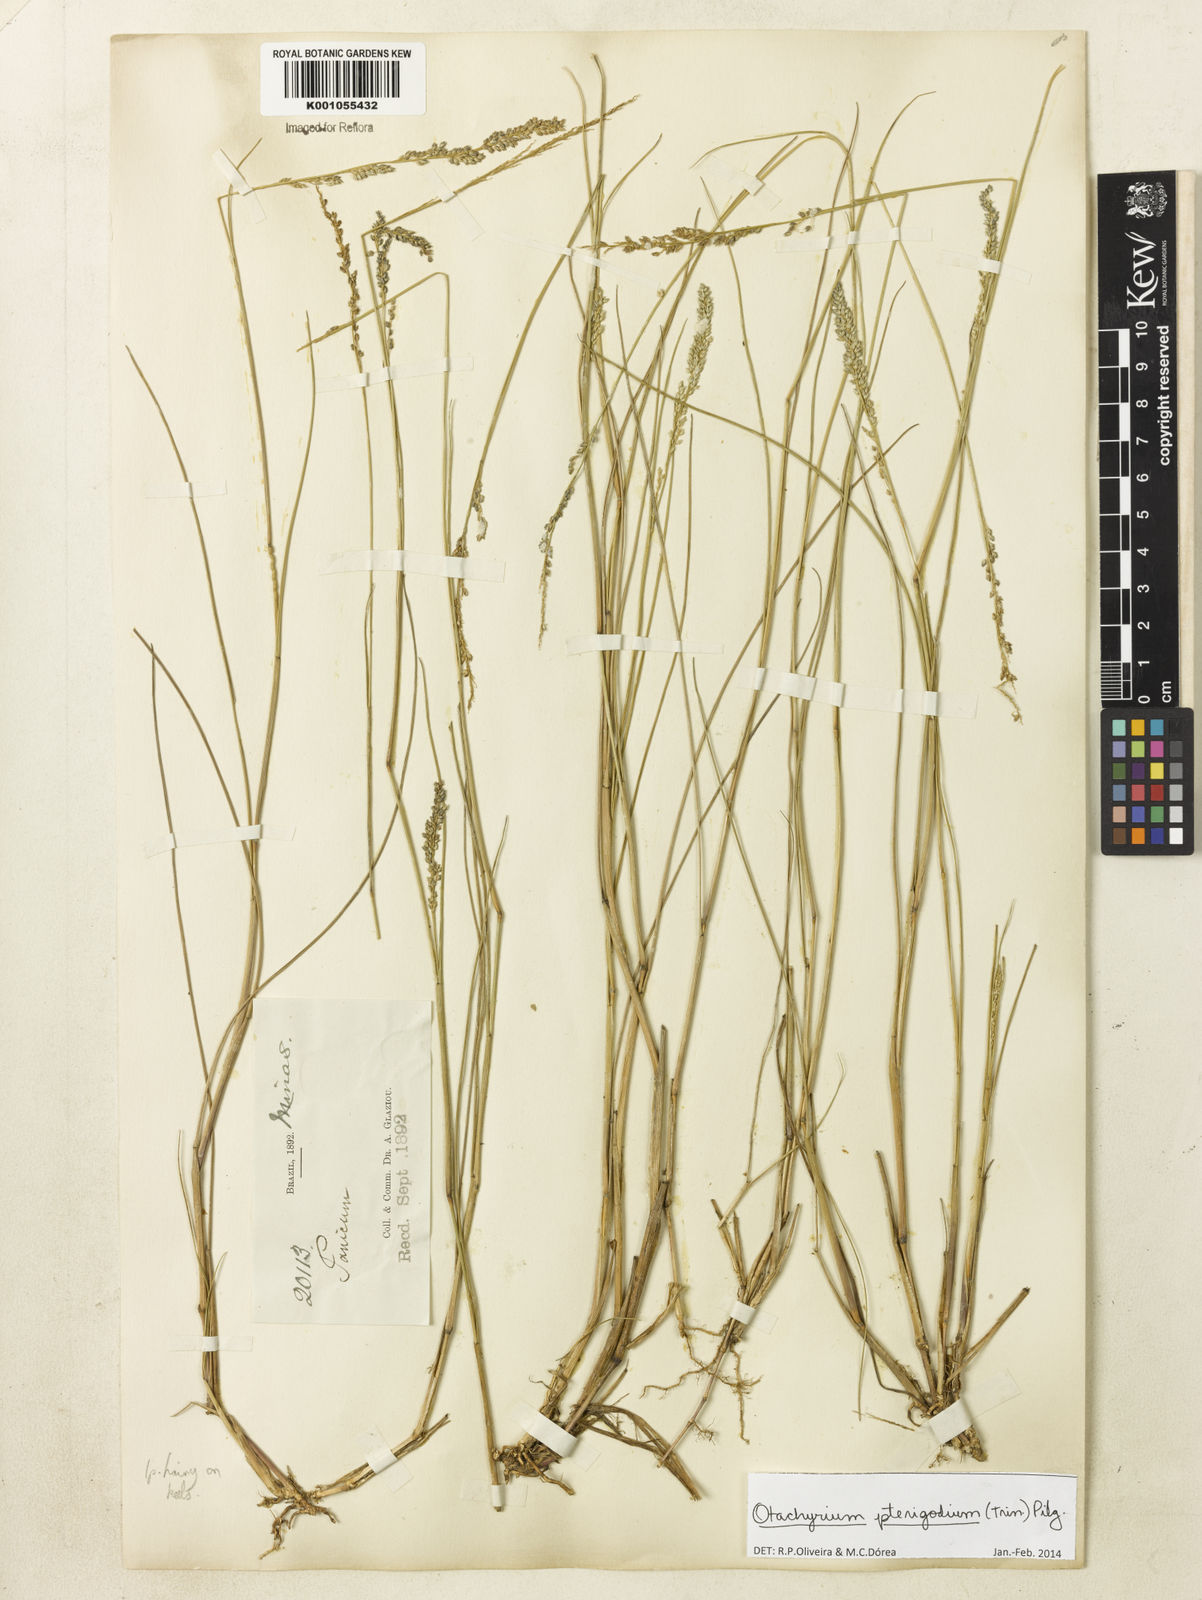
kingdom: Plantae
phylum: Tracheophyta
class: Liliopsida
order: Poales
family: Poaceae
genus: Otachyrium
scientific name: Otachyrium pterigodium
